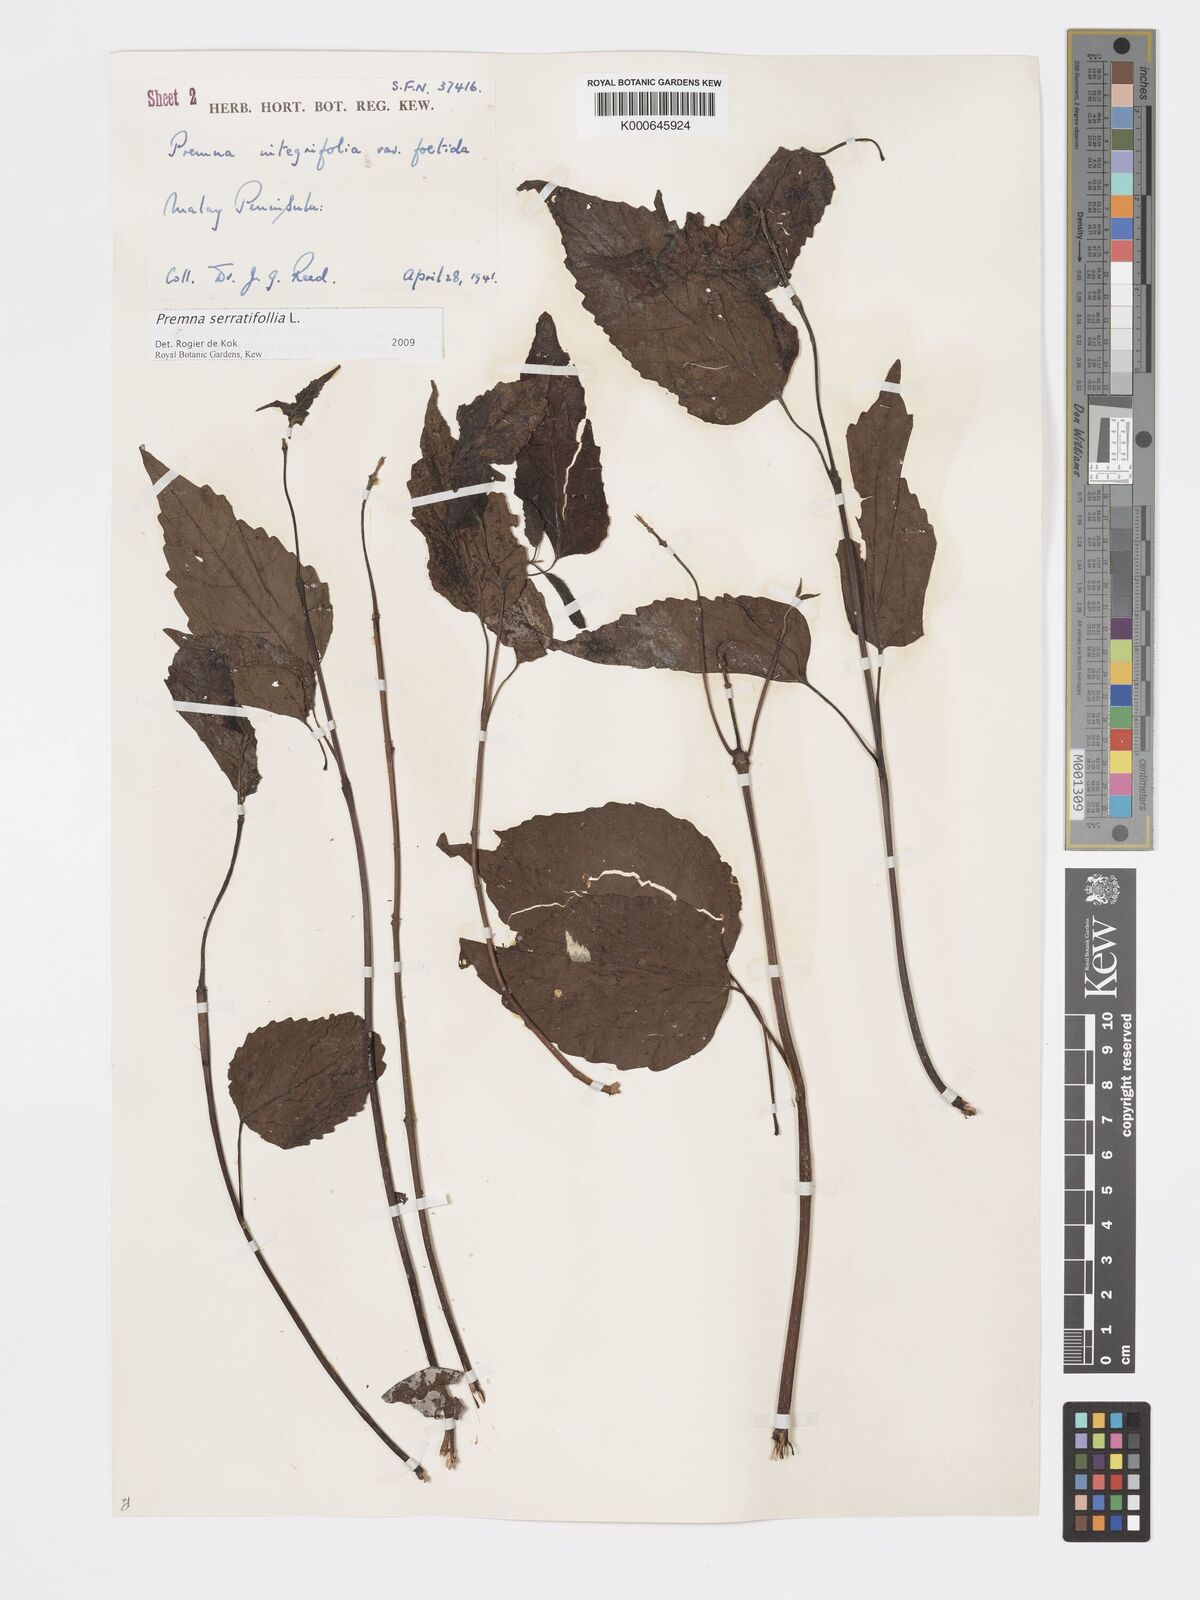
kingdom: Plantae
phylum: Tracheophyta
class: Magnoliopsida
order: Lamiales
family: Lamiaceae
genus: Premna
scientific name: Premna serratifolia
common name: Bastard guelder
